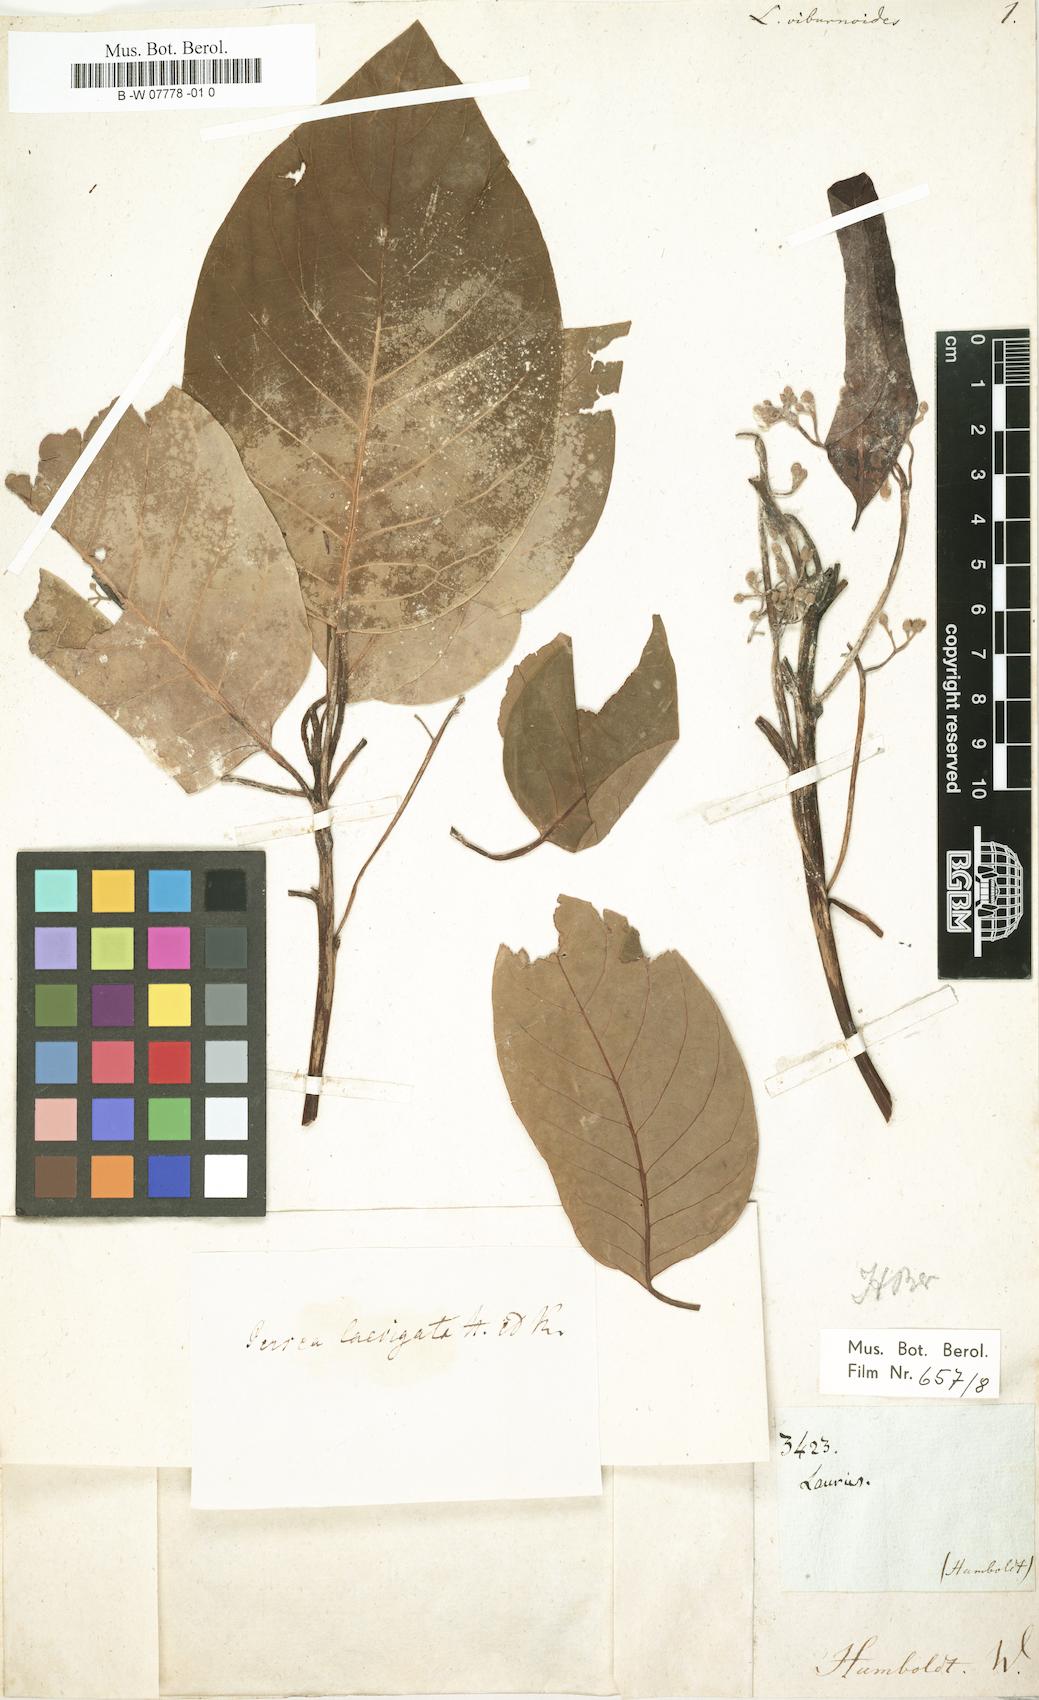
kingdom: Plantae
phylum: Tracheophyta
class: Magnoliopsida
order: Laurales
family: Lauraceae
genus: Persea
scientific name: Persea caerulea
